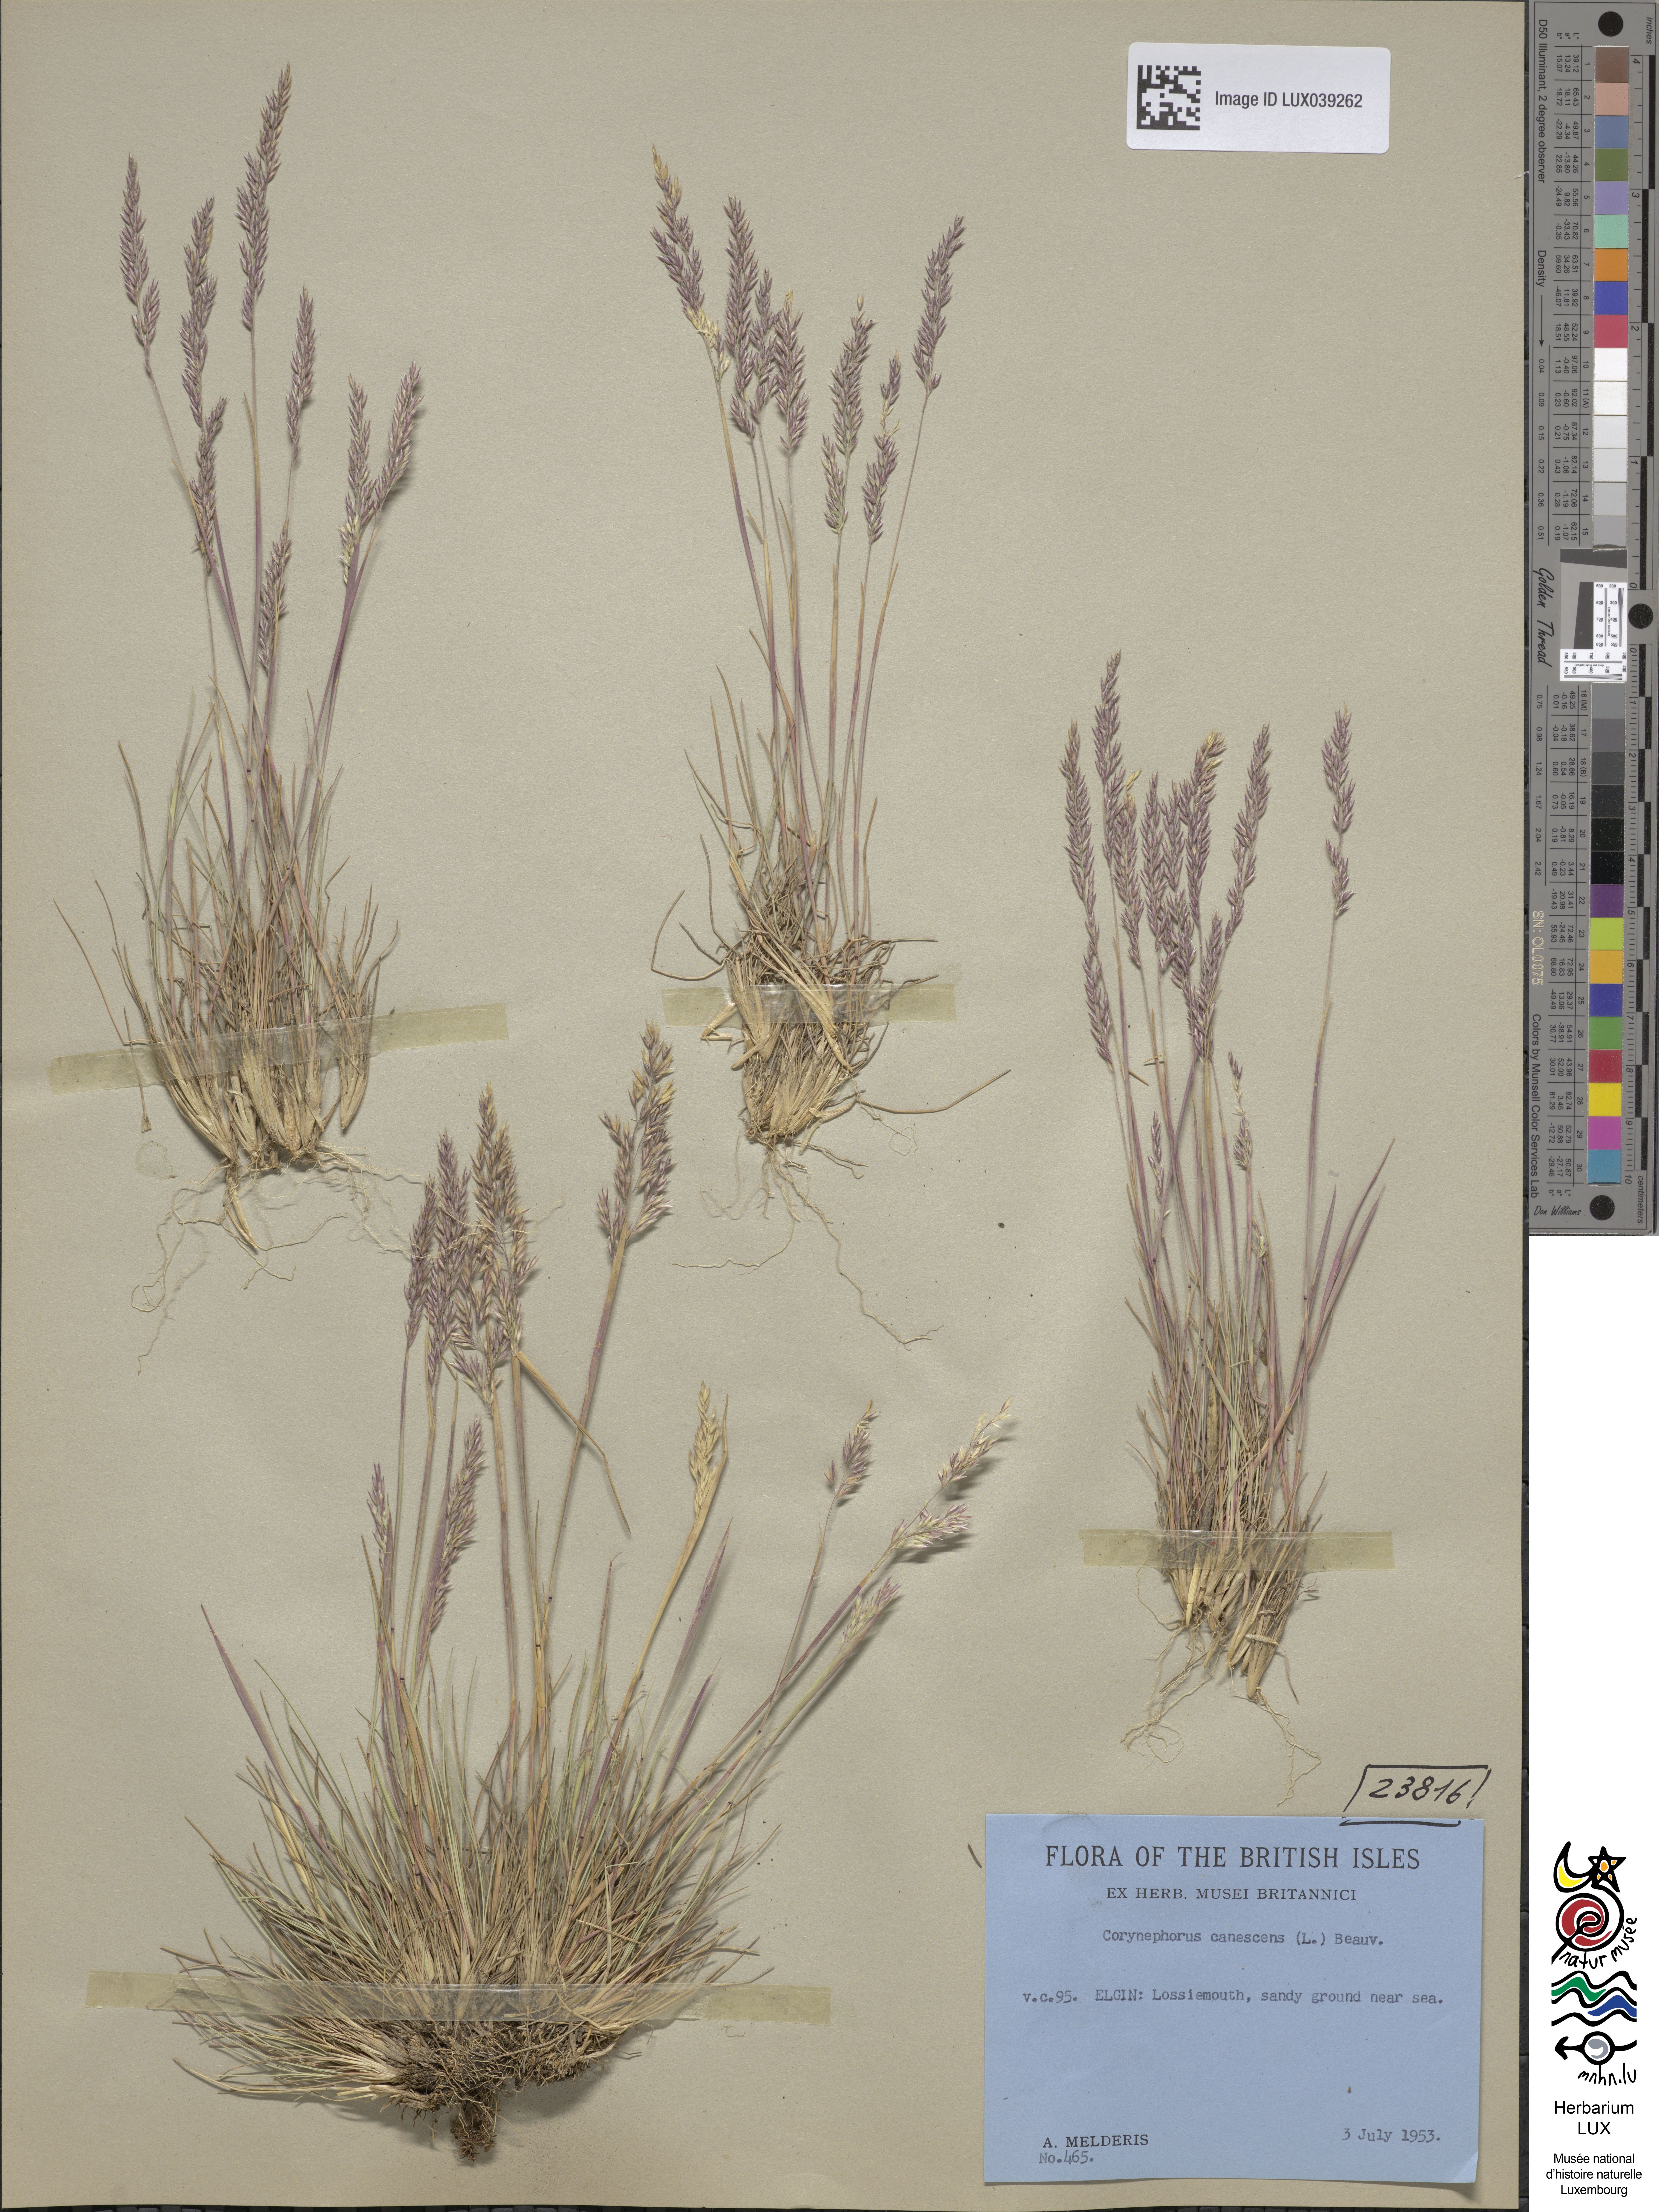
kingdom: Plantae
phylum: Tracheophyta
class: Liliopsida
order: Poales
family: Poaceae
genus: Corynephorus
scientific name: Corynephorus canescens
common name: Grey hair-grass
